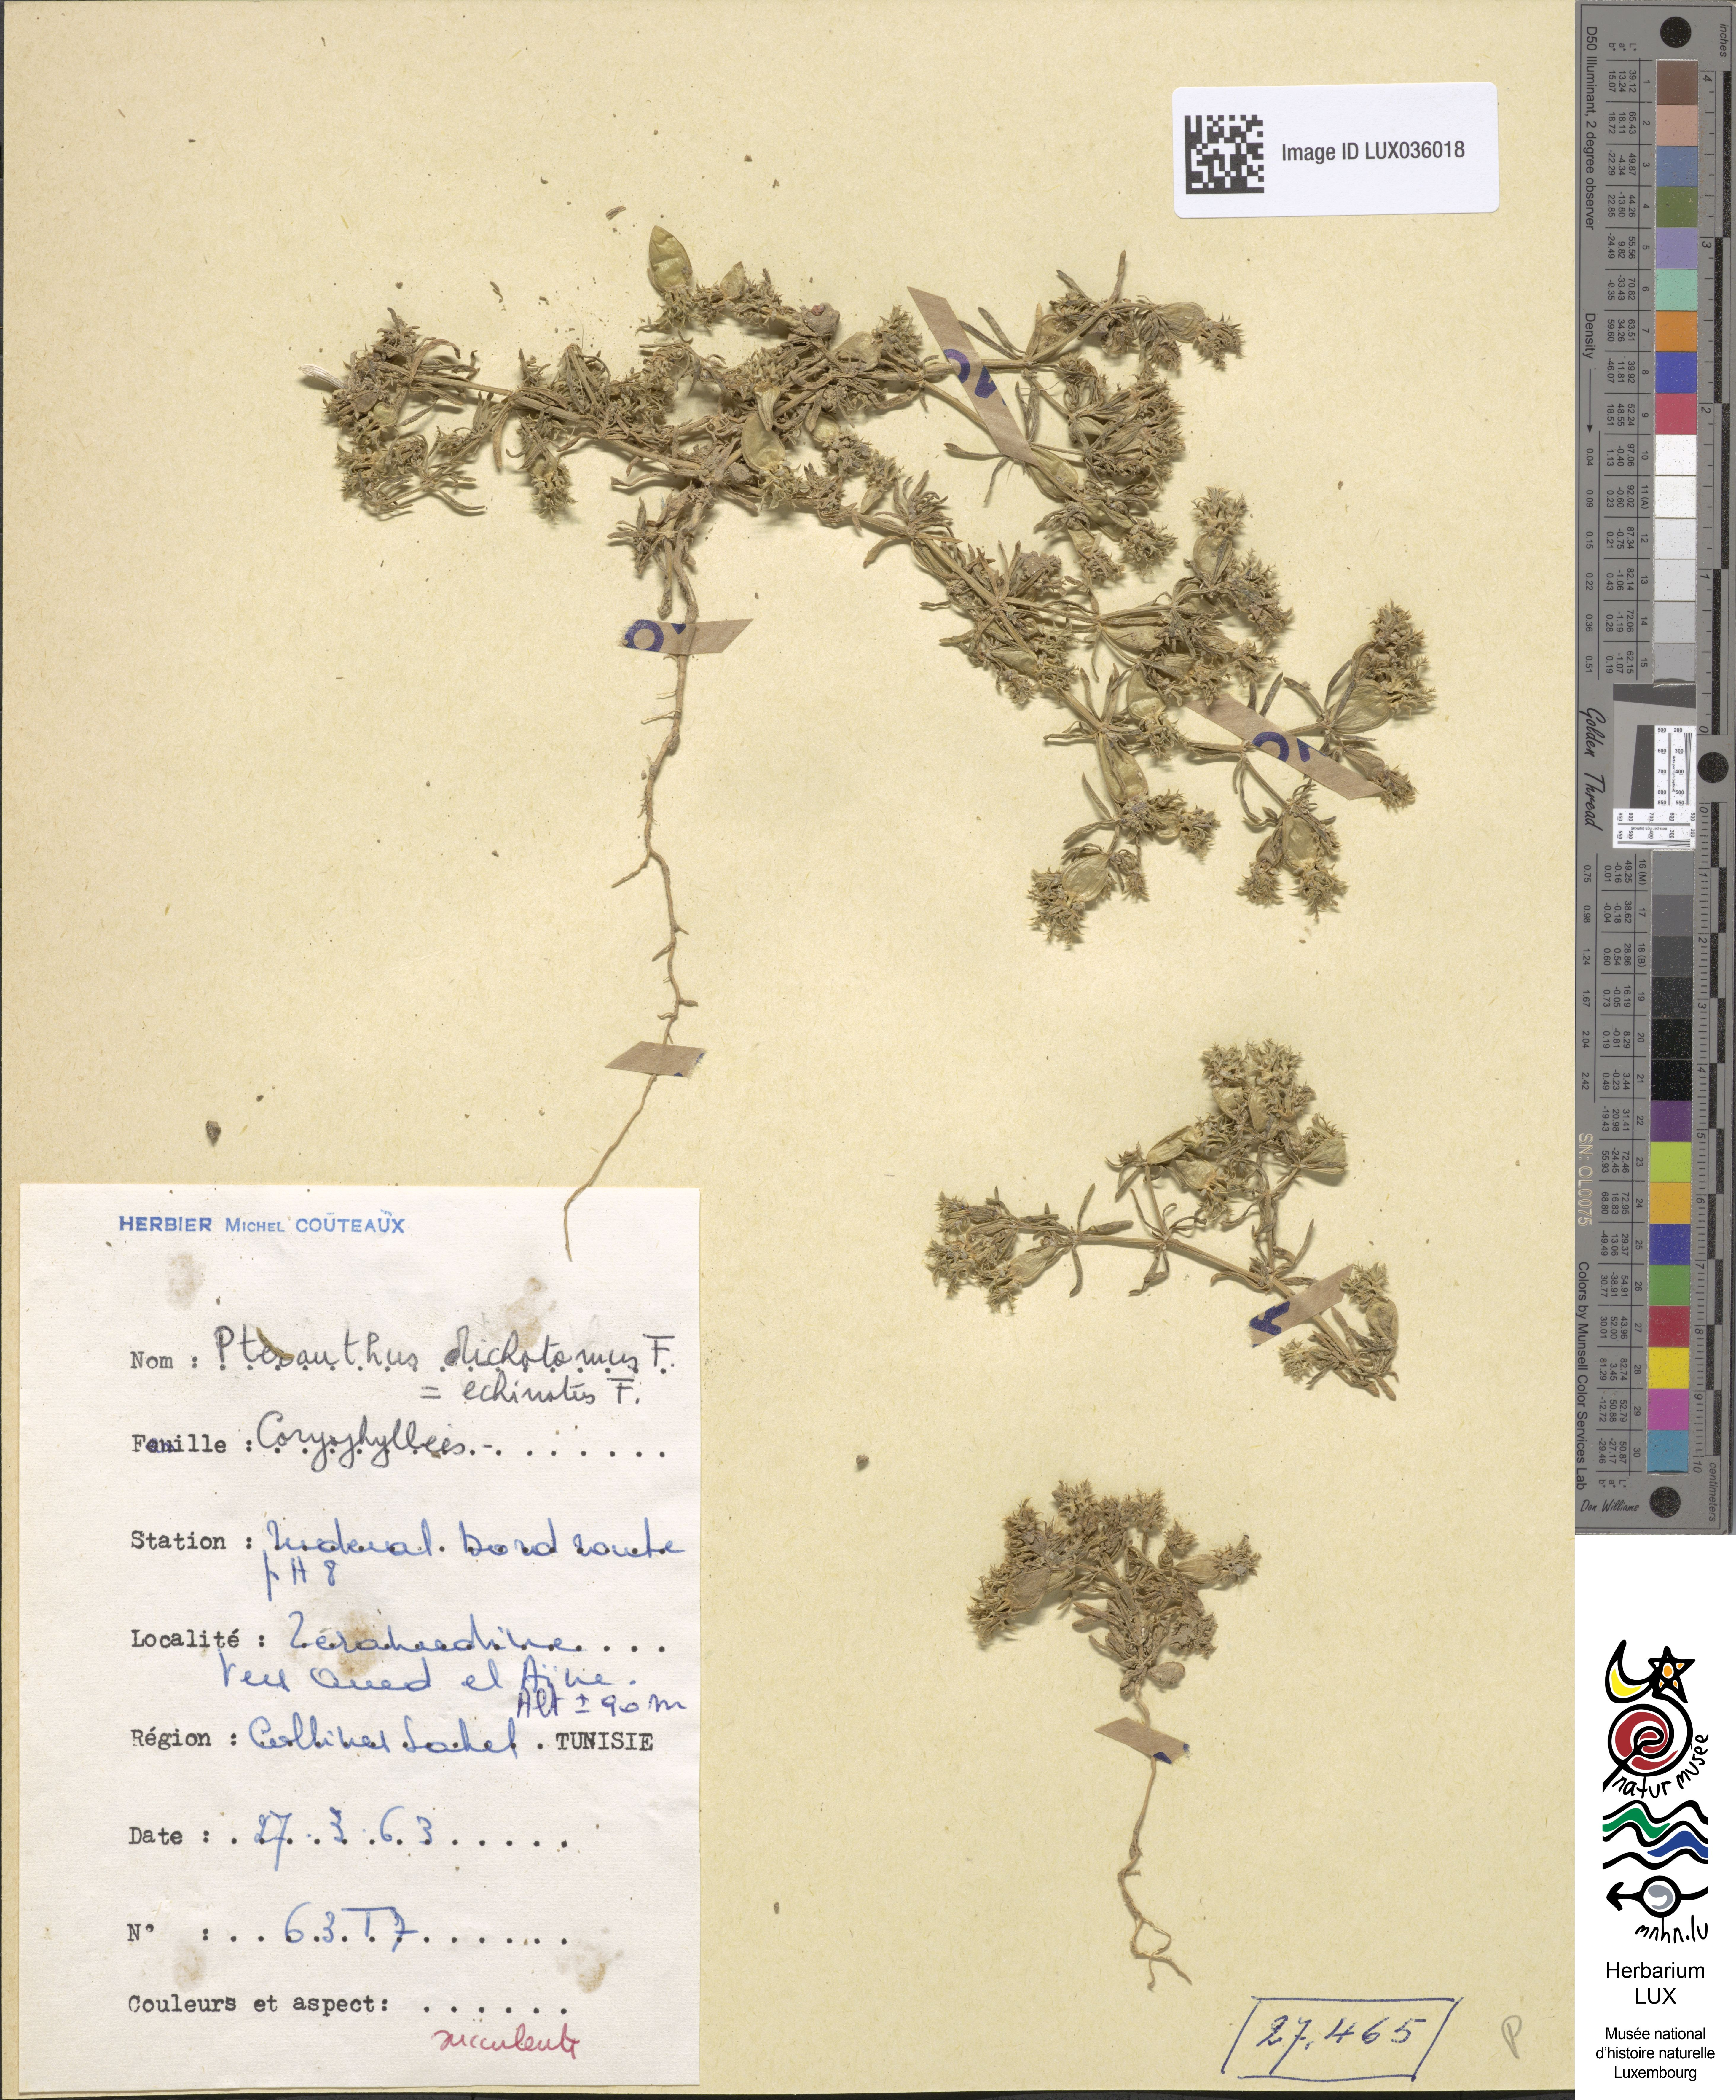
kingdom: Plantae
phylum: Tracheophyta
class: Magnoliopsida
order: Caryophyllales
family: Caryophyllaceae
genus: Pteranthus
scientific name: Pteranthus dichotomus
